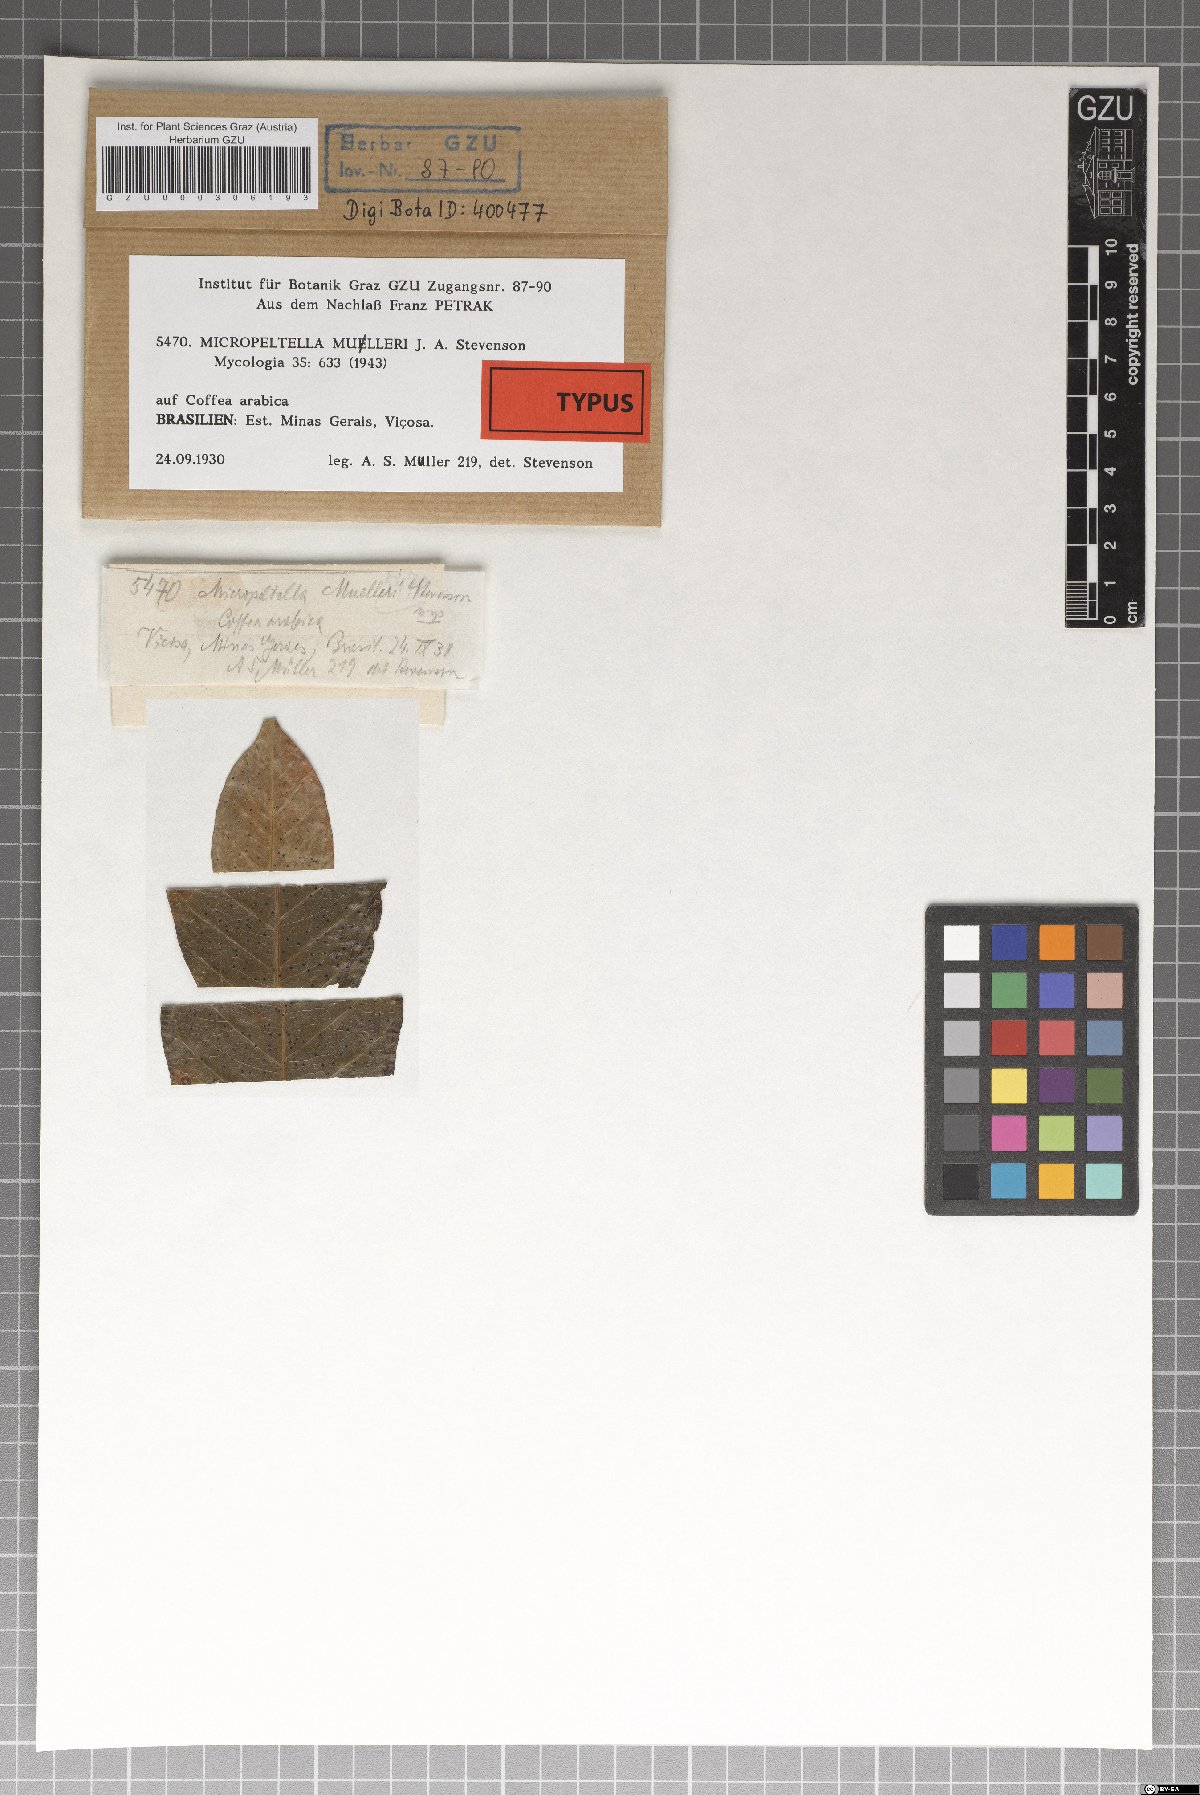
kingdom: Fungi
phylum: Ascomycota
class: Dothideomycetes
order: Microthyriales
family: Micropeltidaceae
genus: Micropeltella
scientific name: Micropeltella mulleri
